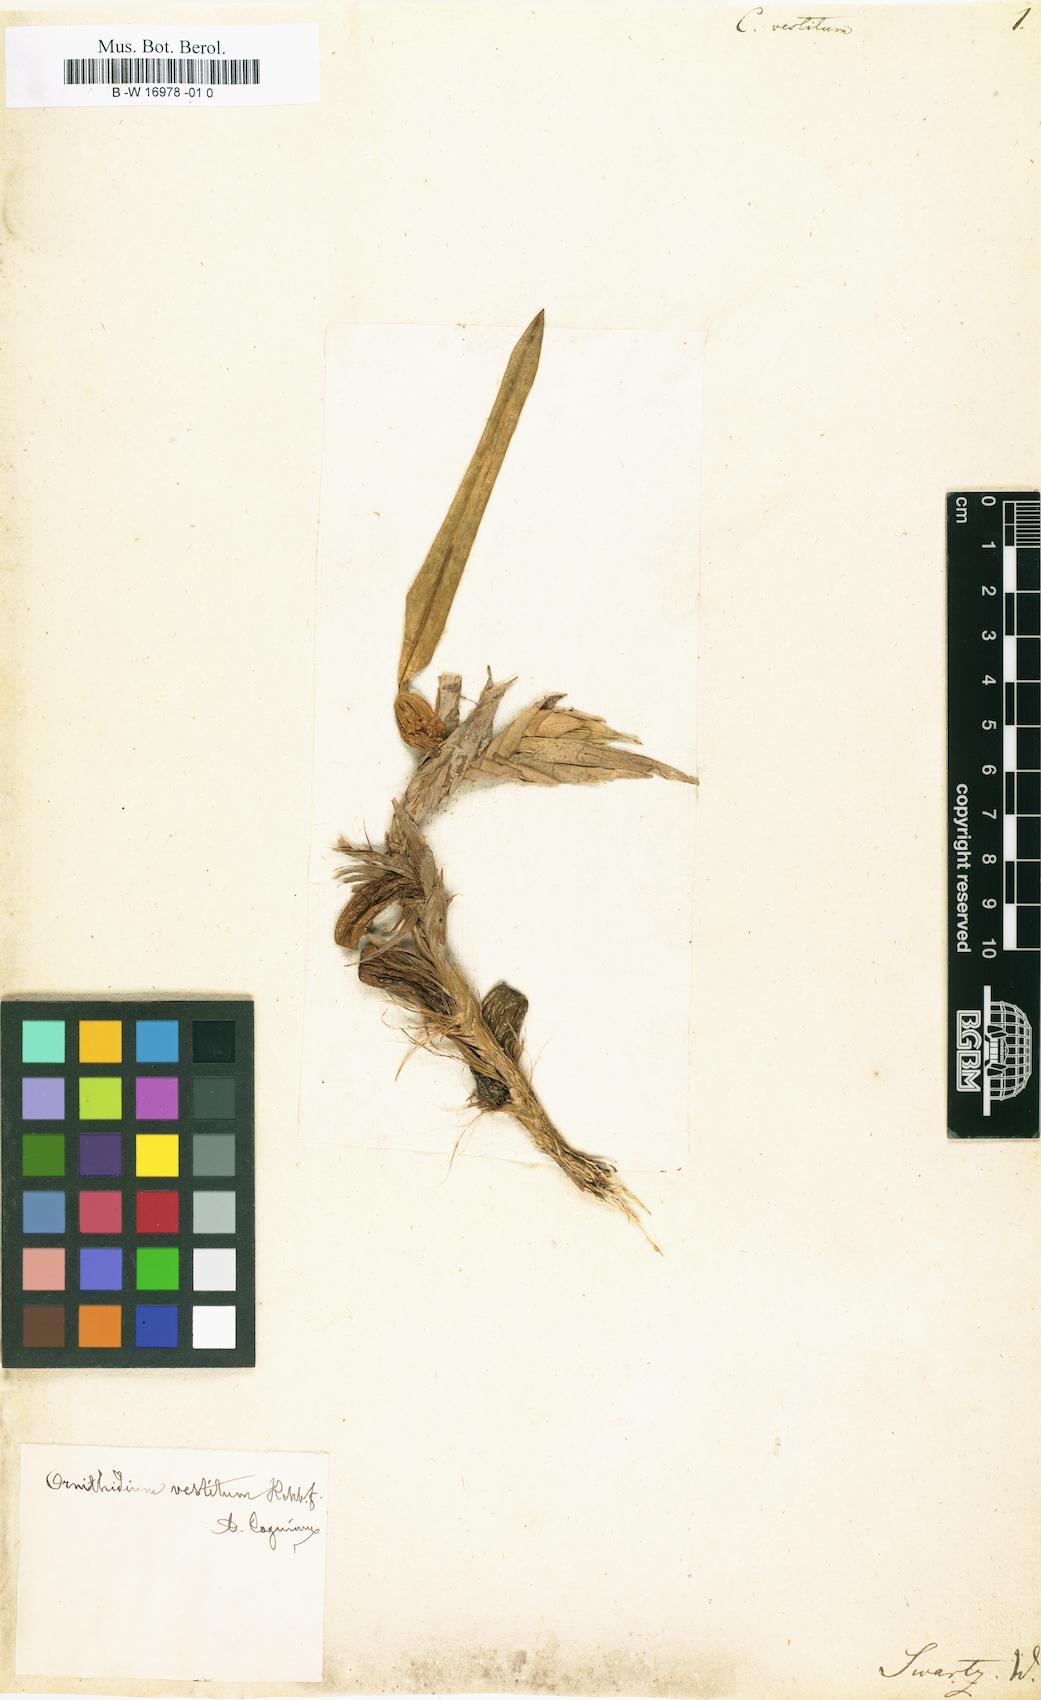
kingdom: Plantae
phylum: Tracheophyta
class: Liliopsida
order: Asparagales
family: Orchidaceae
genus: Maxillaria
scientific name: Maxillaria parviflora
